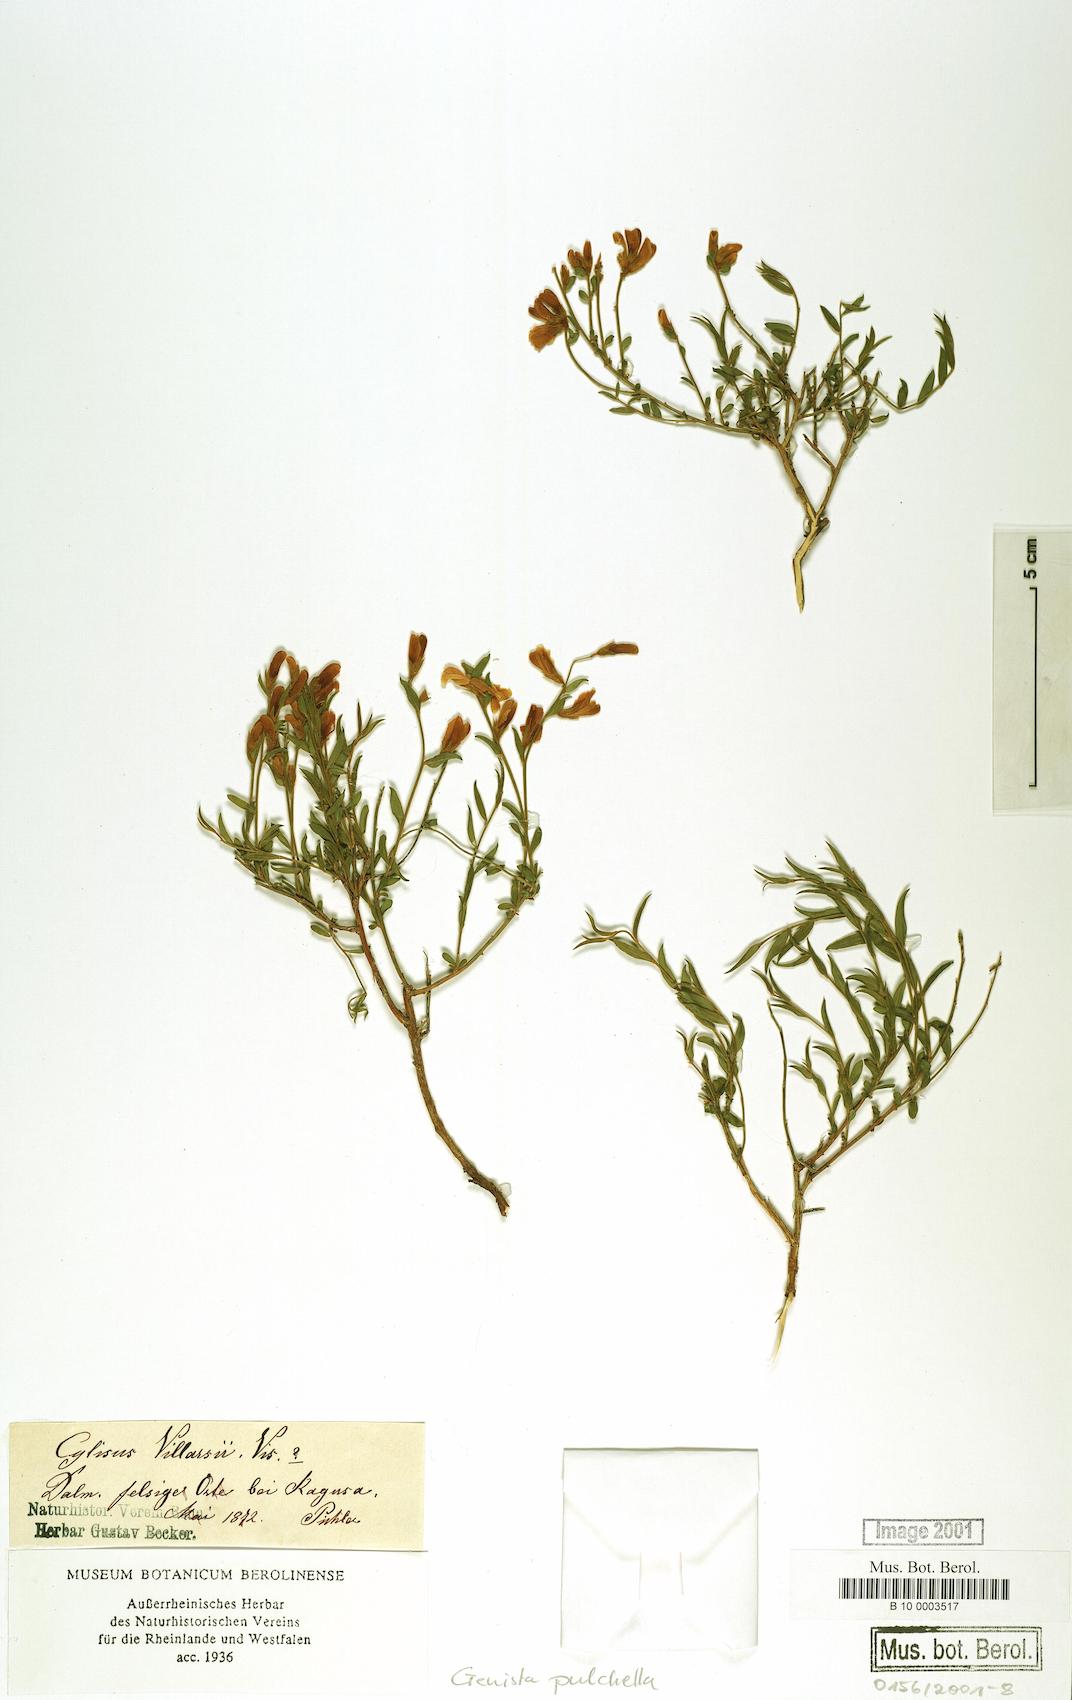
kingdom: Plantae
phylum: Tracheophyta
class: Magnoliopsida
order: Fabales
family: Fabaceae
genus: Genista
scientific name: Genista pulchella
